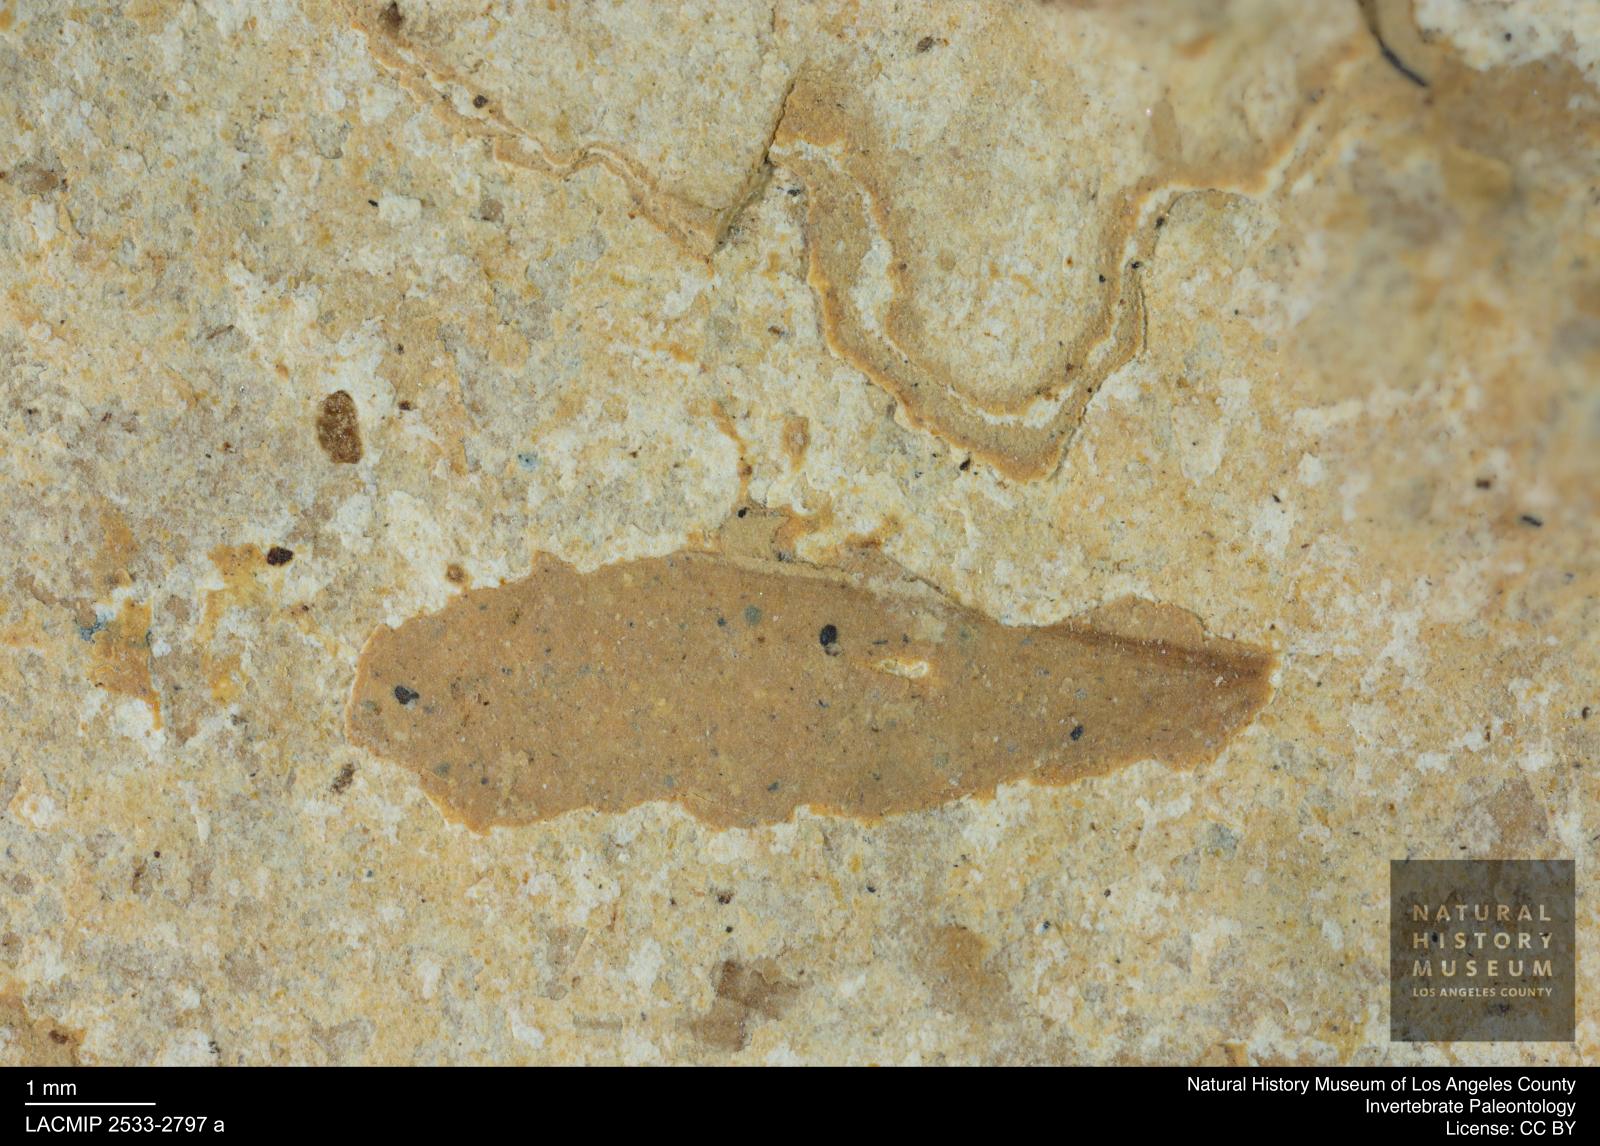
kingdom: Animalia
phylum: Arthropoda
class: Insecta
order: Blattodea
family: Kalotermitidae
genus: Kalotermes
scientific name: Kalotermes rhenanus
